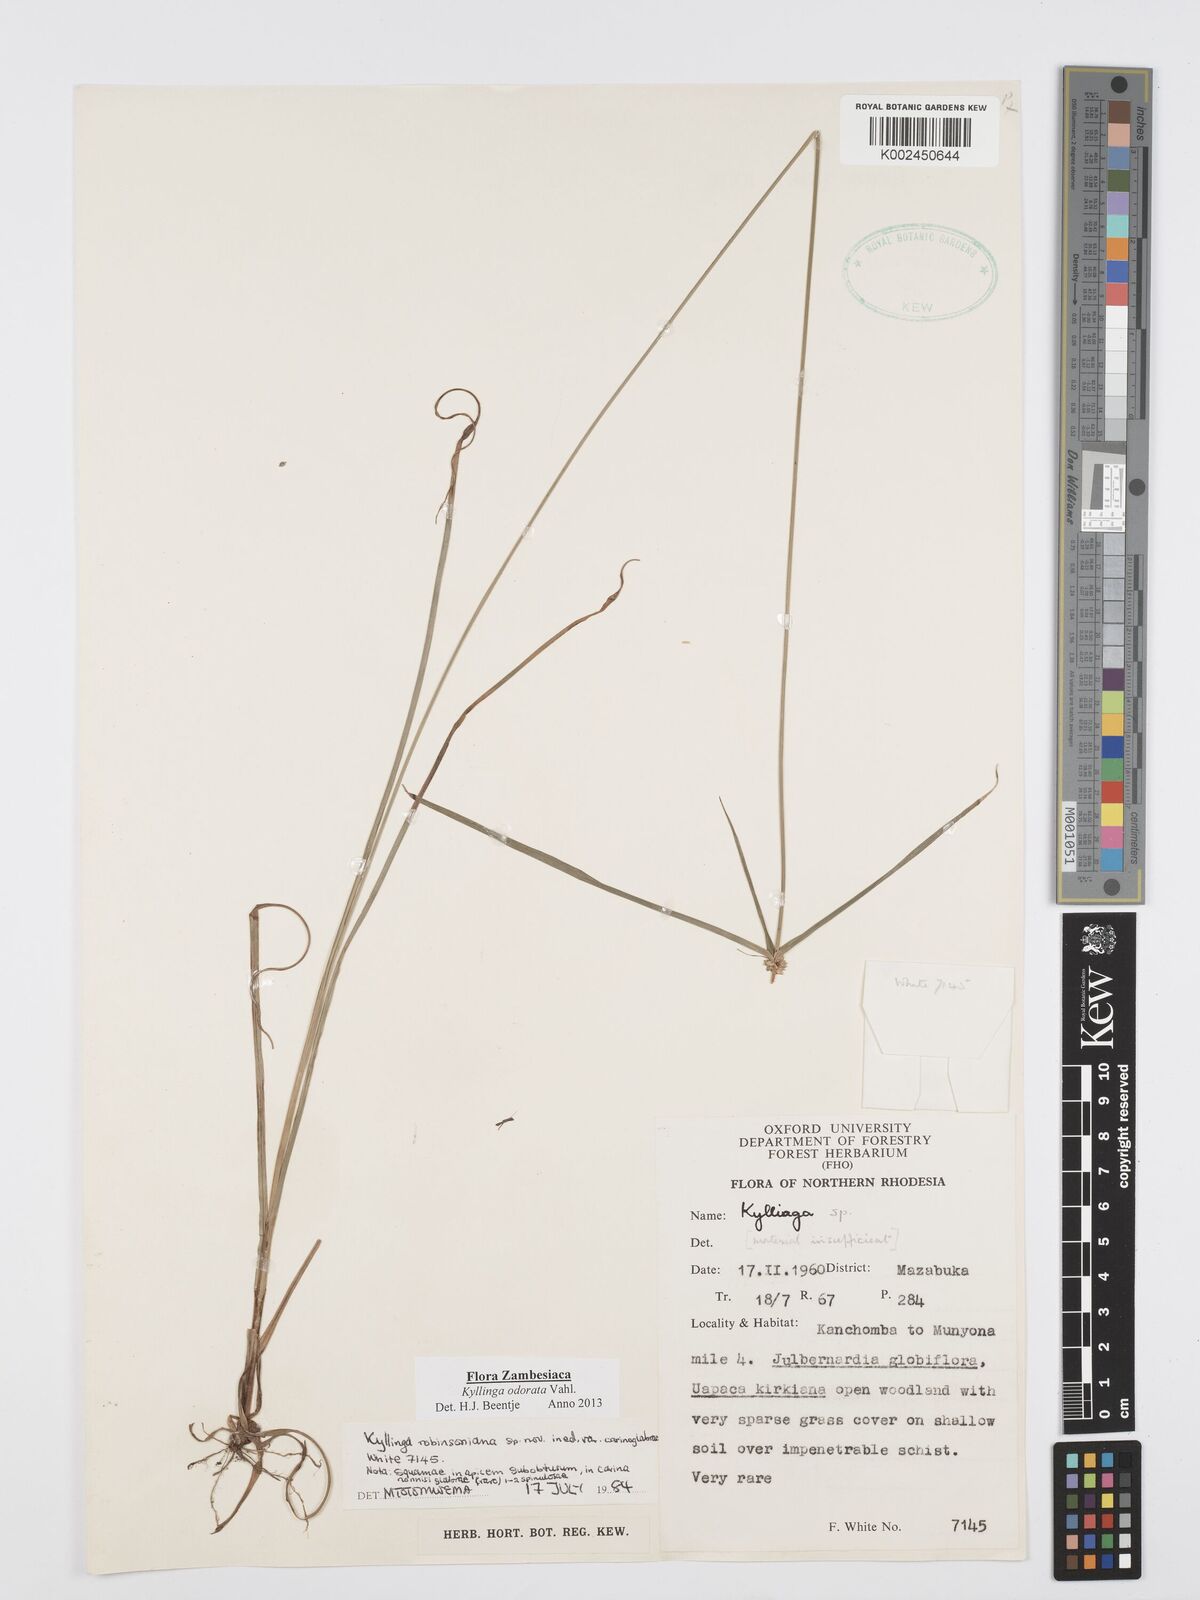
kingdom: Plantae
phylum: Tracheophyta
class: Liliopsida
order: Poales
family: Cyperaceae
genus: Cyperus
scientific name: Cyperus
